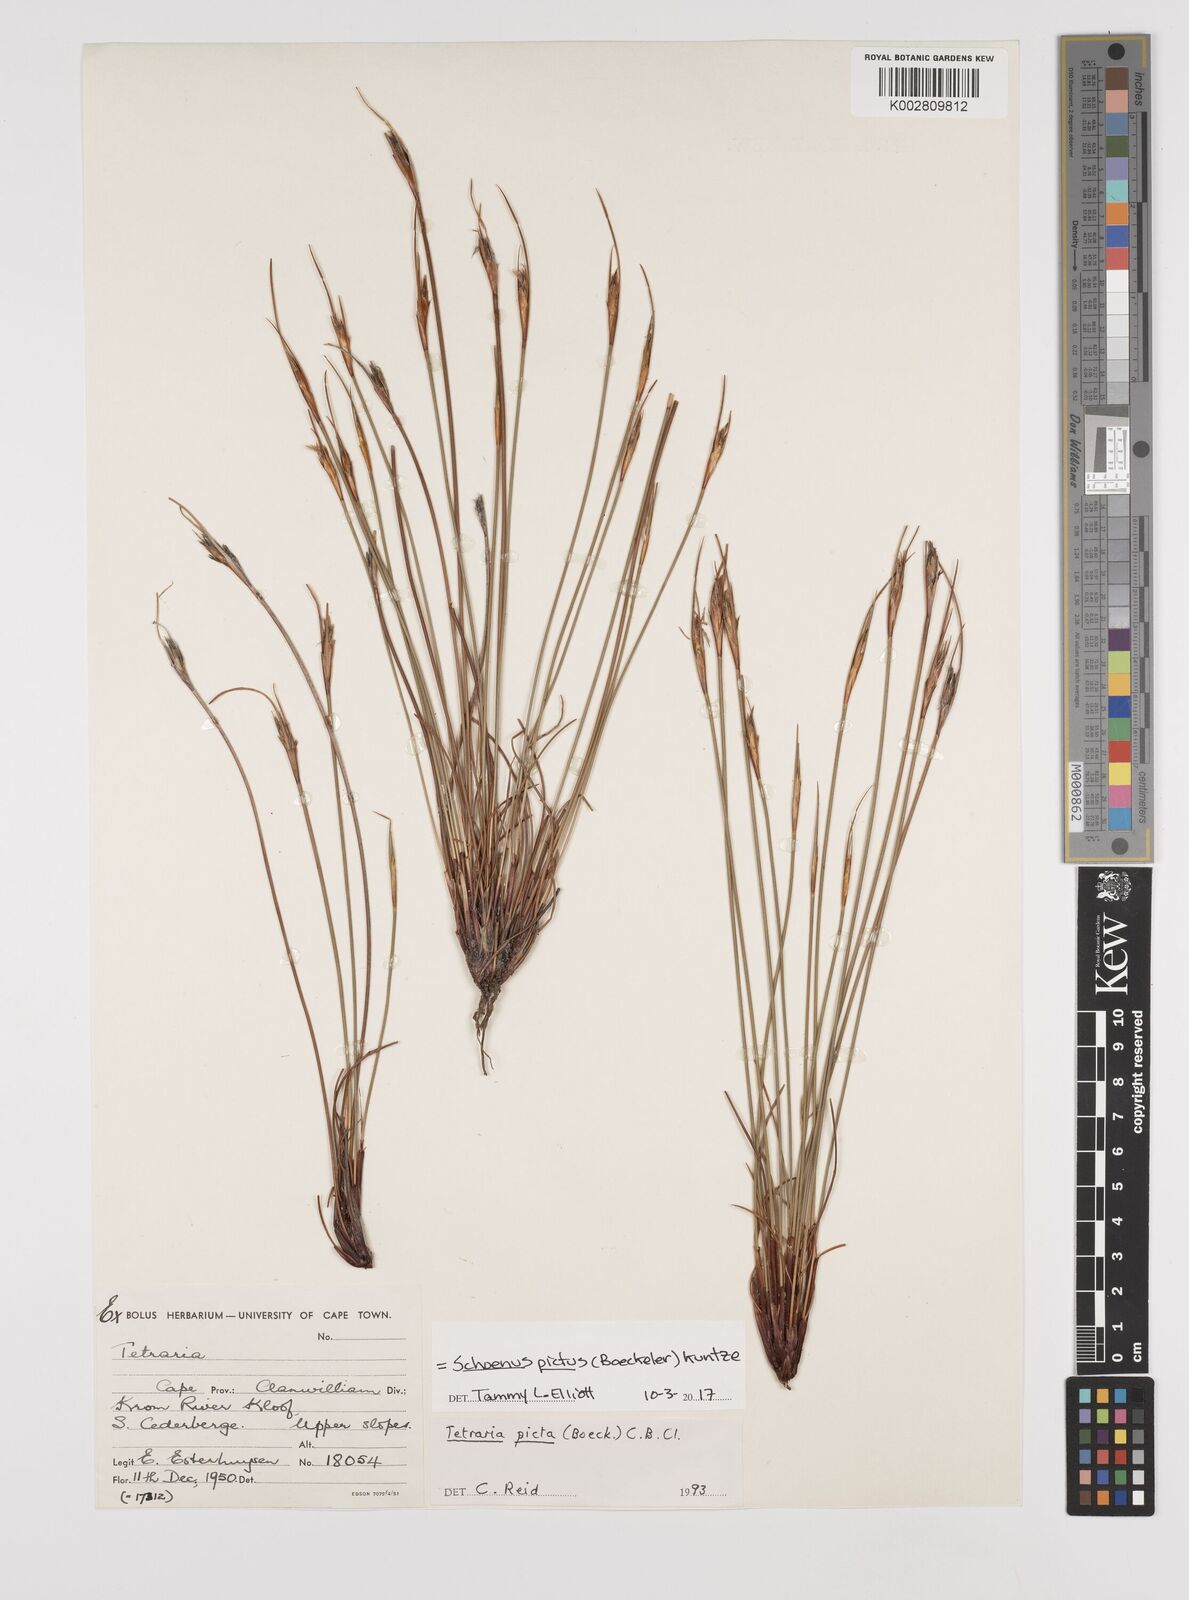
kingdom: Plantae
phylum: Tracheophyta
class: Liliopsida
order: Poales
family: Cyperaceae
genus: Schoenus
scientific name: Schoenus pictus
